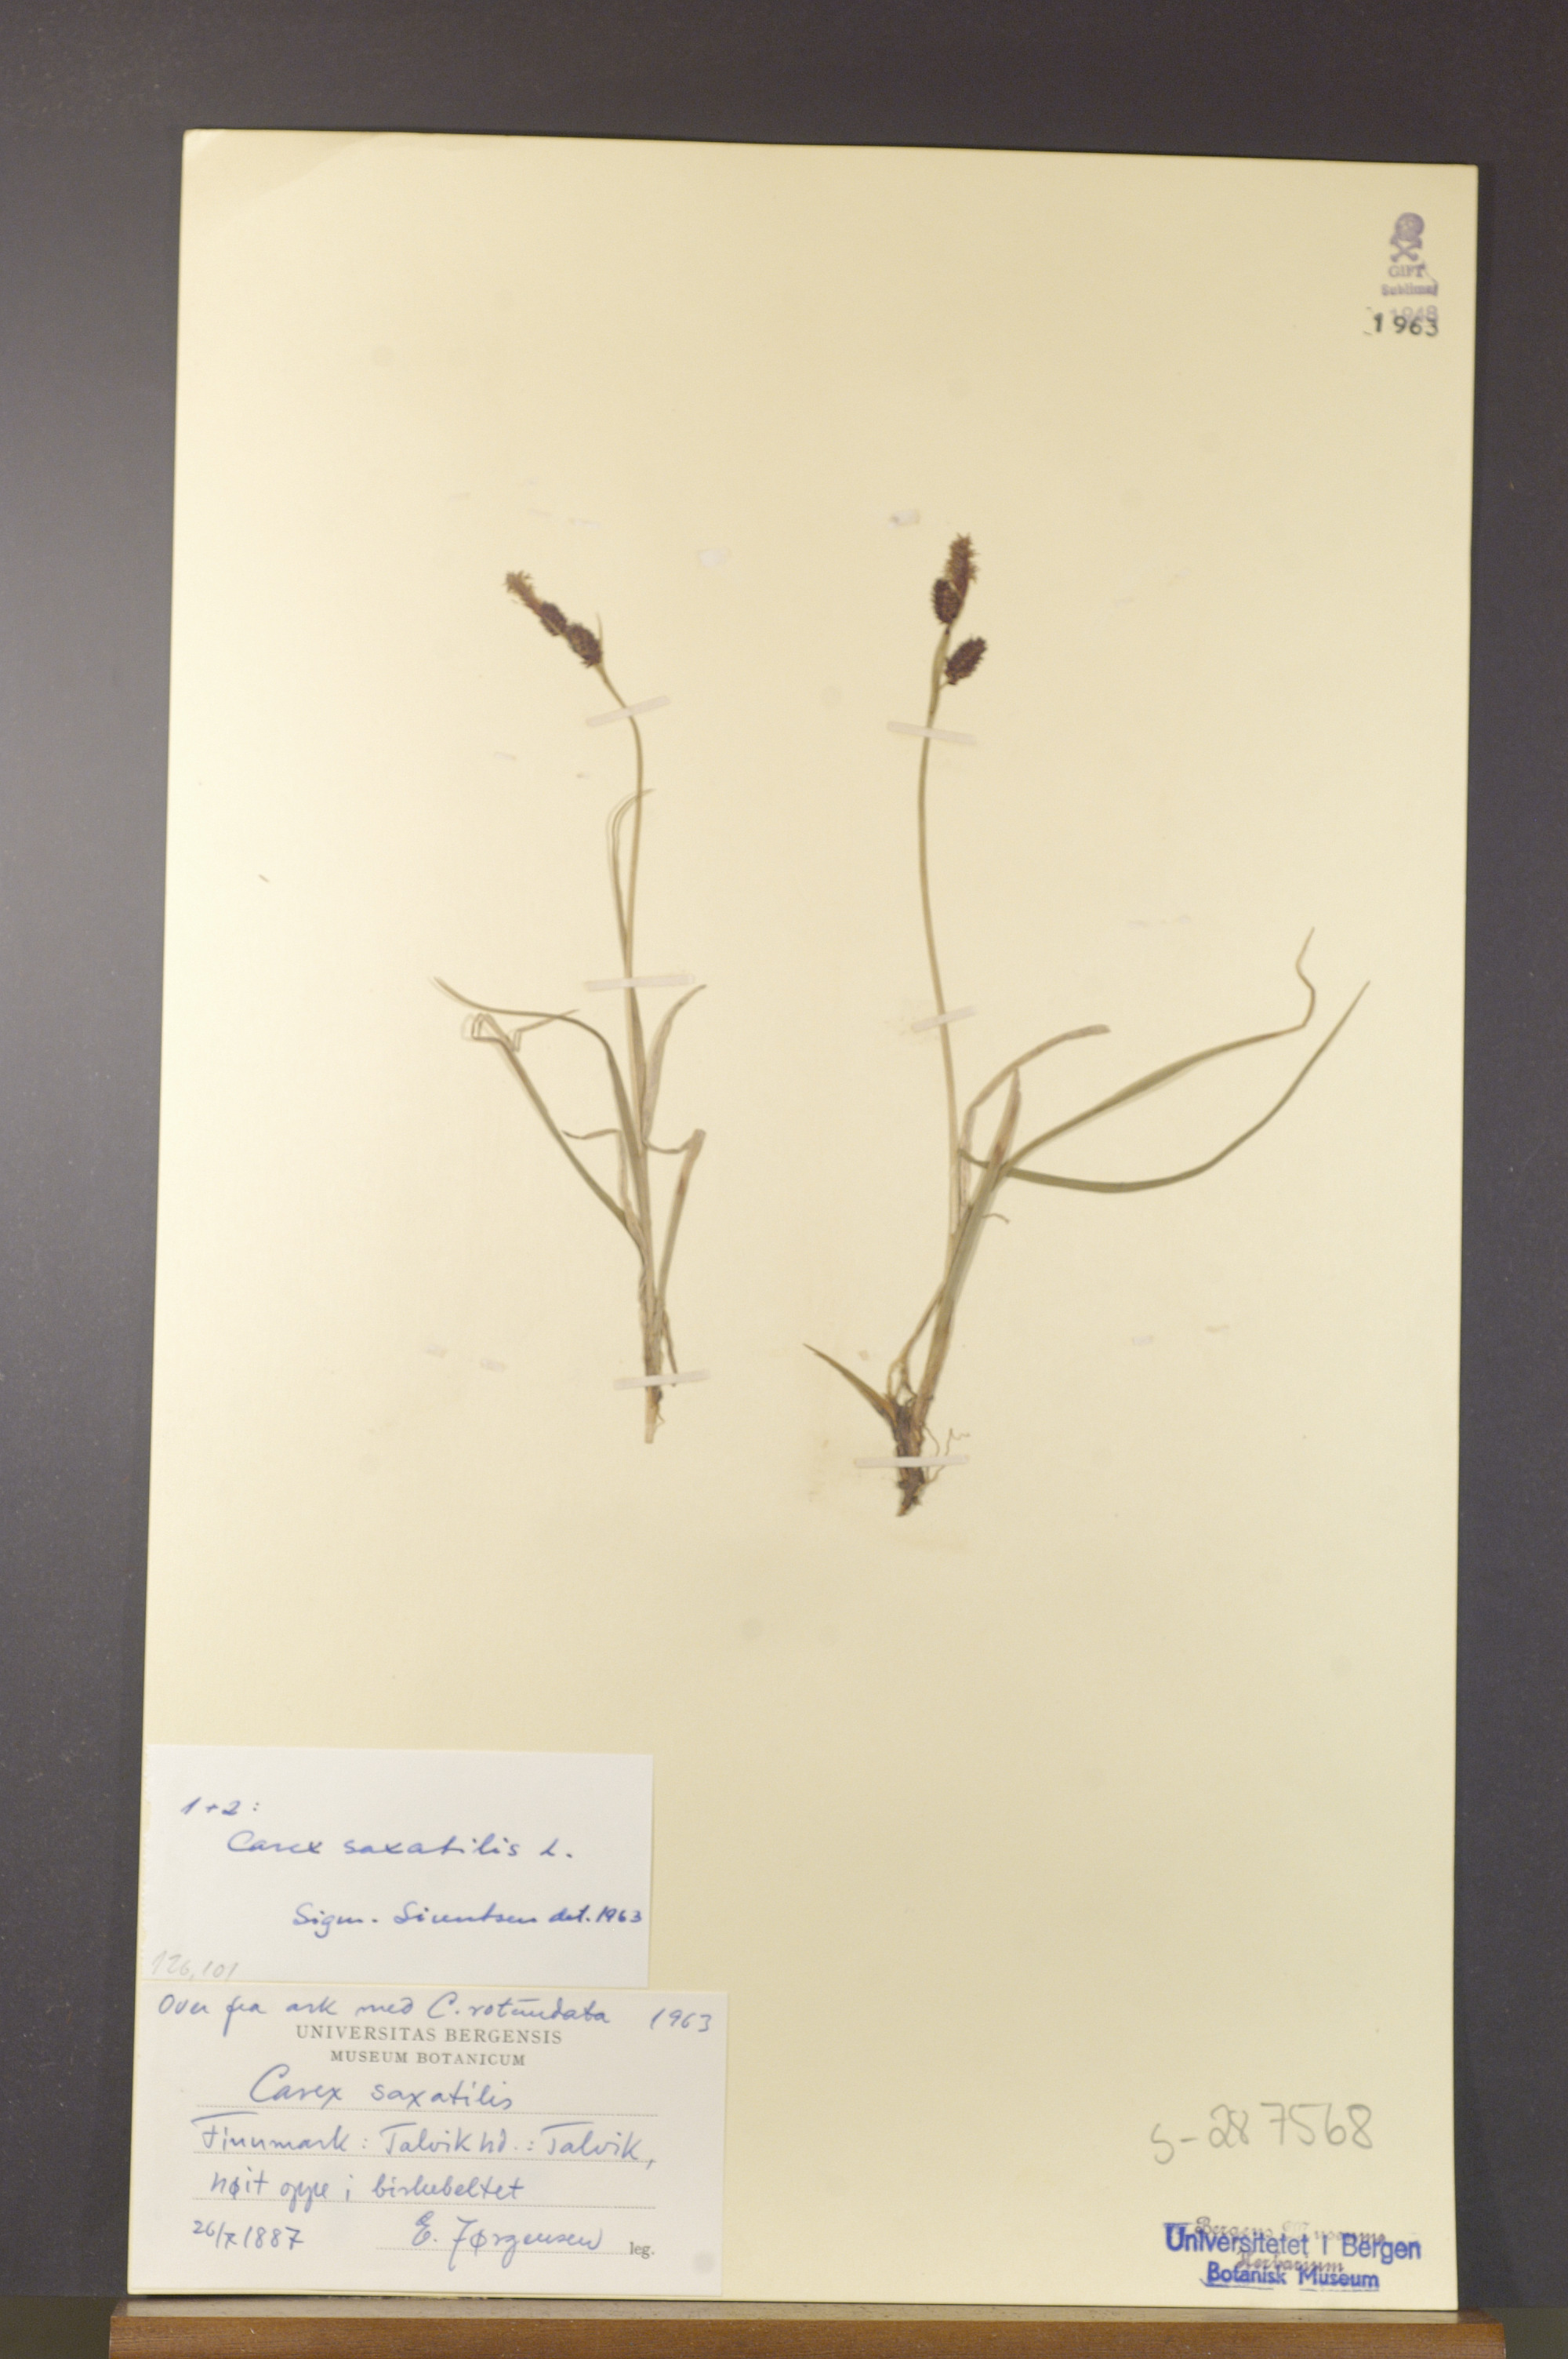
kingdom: Plantae
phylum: Tracheophyta
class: Liliopsida
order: Poales
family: Cyperaceae
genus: Carex
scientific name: Carex saxatilis
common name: Russet sedge
